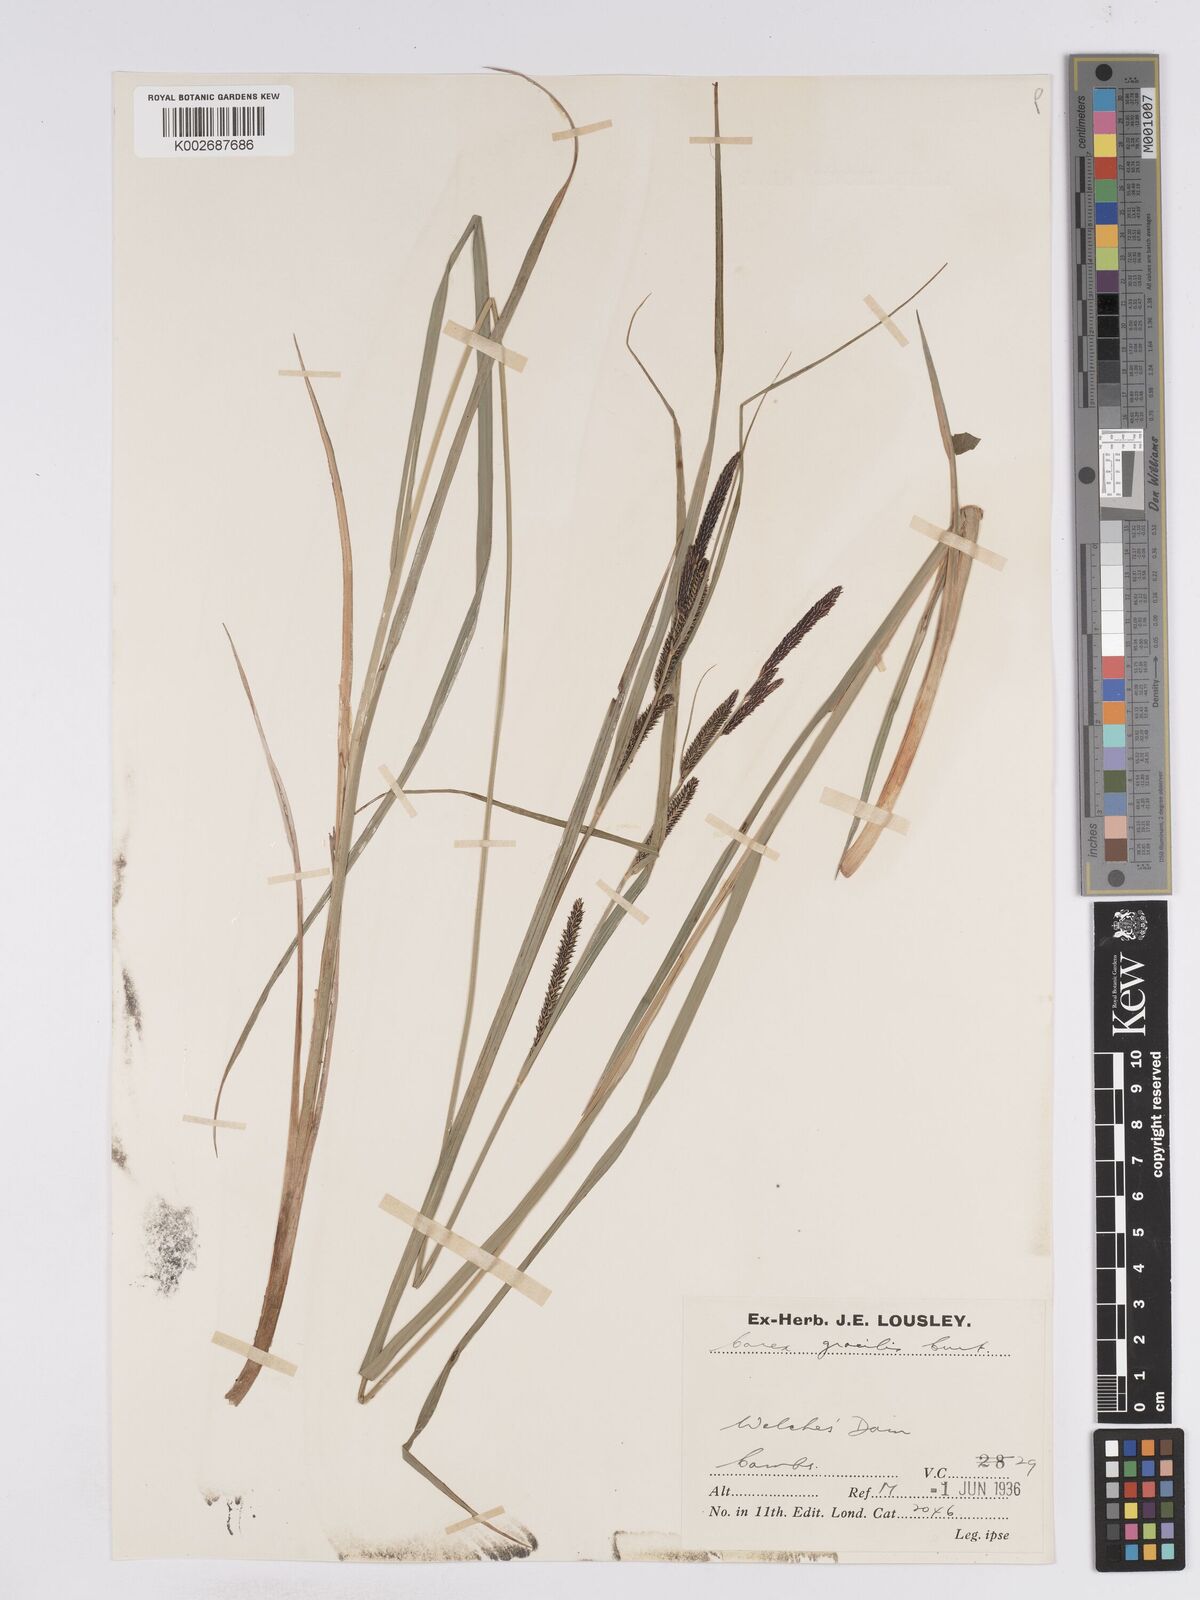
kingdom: Plantae
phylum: Tracheophyta
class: Liliopsida
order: Poales
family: Cyperaceae
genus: Carex
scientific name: Carex acuta
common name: Slender tufted-sedge
